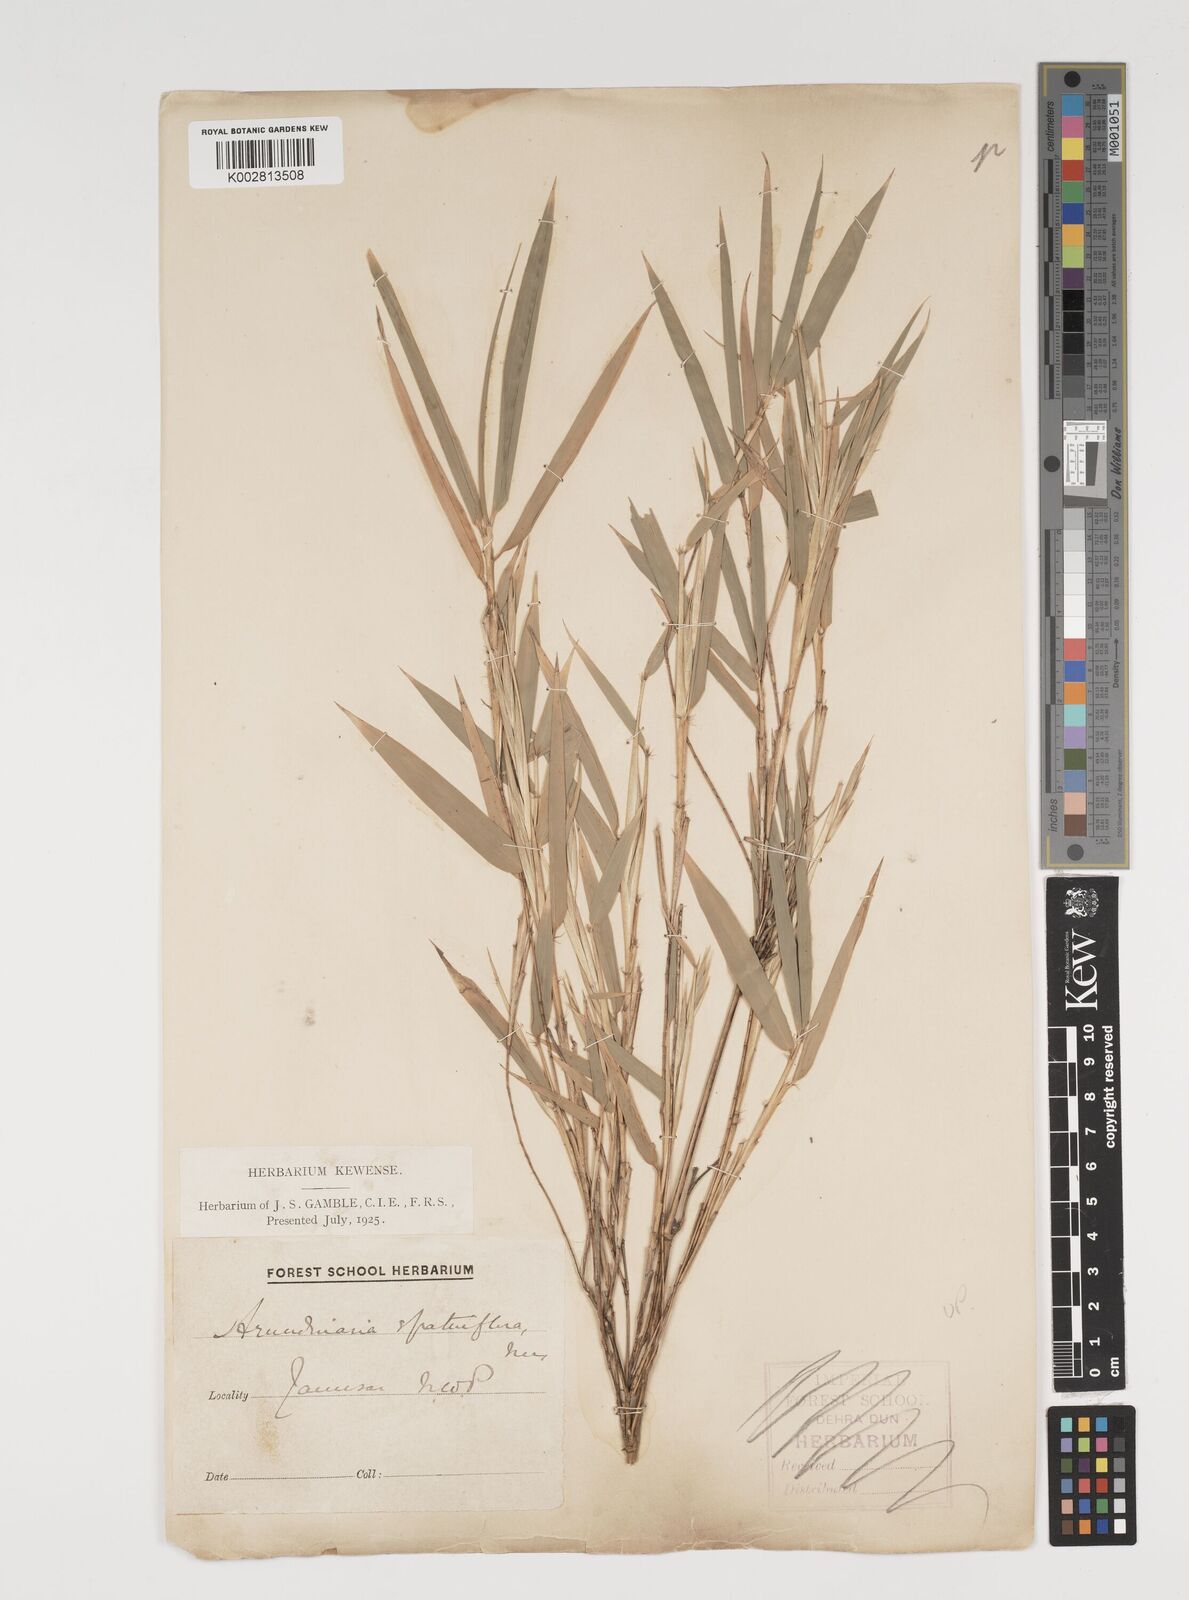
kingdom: Plantae
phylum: Tracheophyta
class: Liliopsida
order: Poales
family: Poaceae
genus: Thamnocalamus
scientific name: Thamnocalamus spathiflorus
